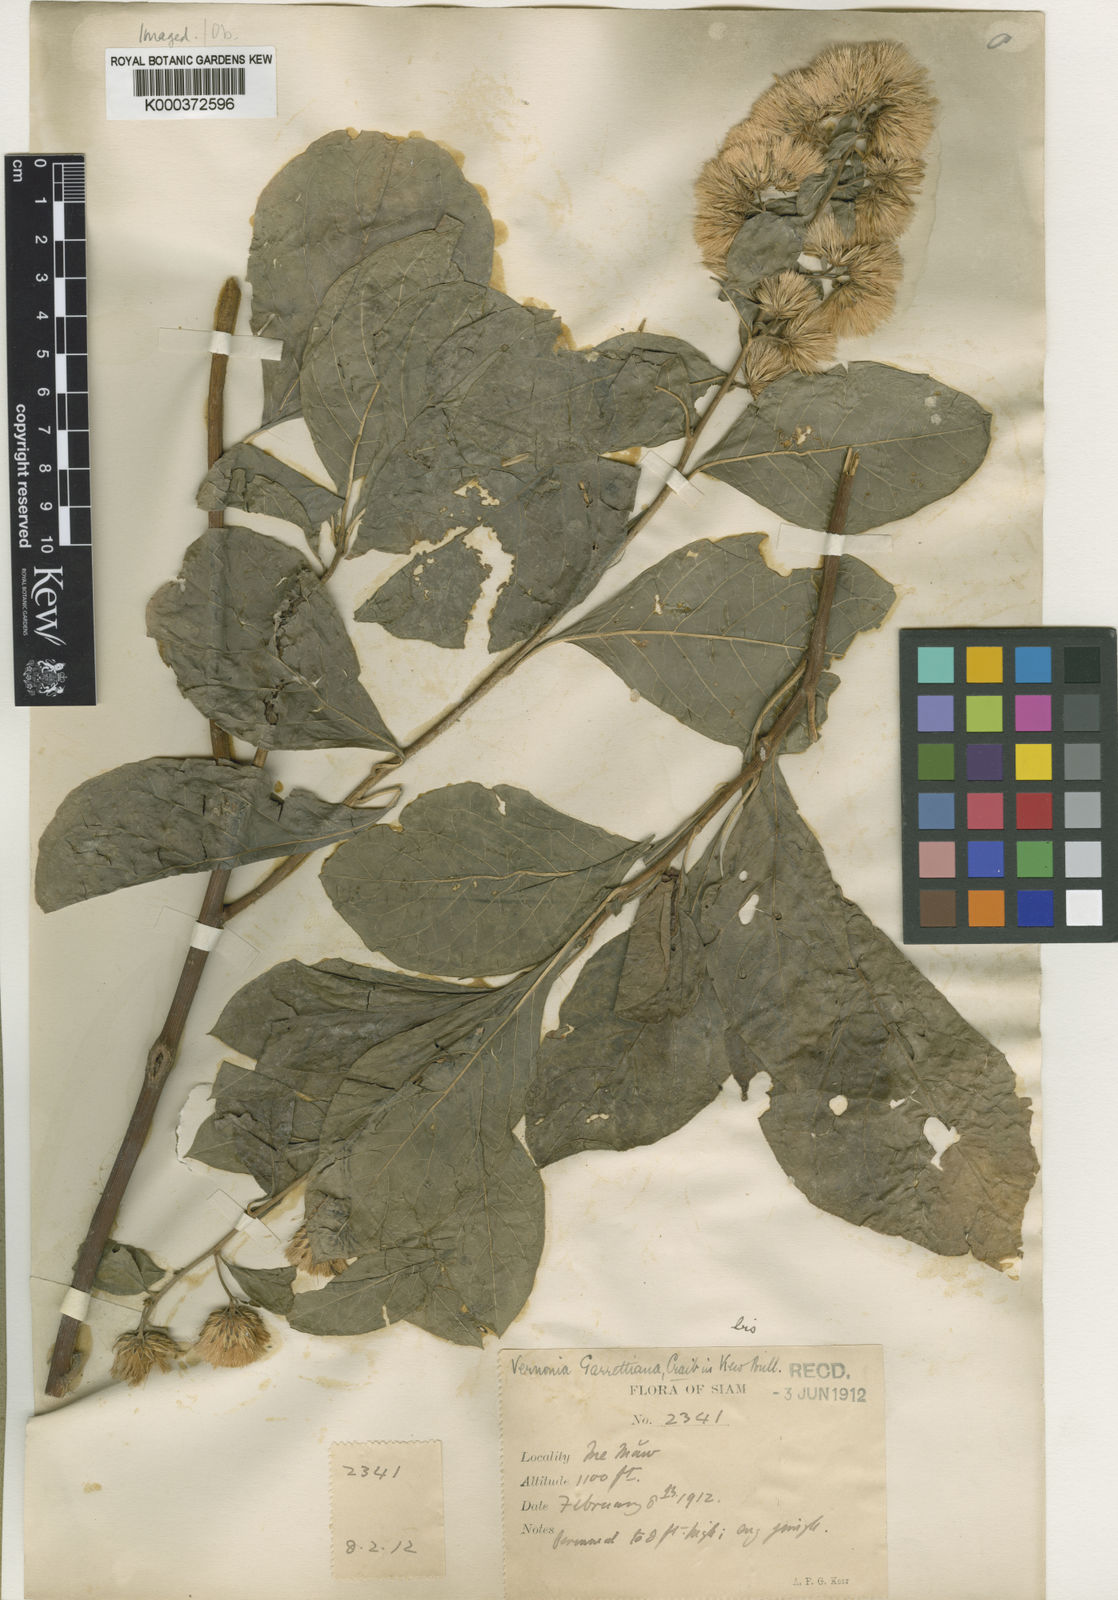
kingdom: Plantae
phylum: Tracheophyta
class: Magnoliopsida
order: Asterales
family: Asteraceae
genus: Decaneuropsis
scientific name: Decaneuropsis garrettiana
